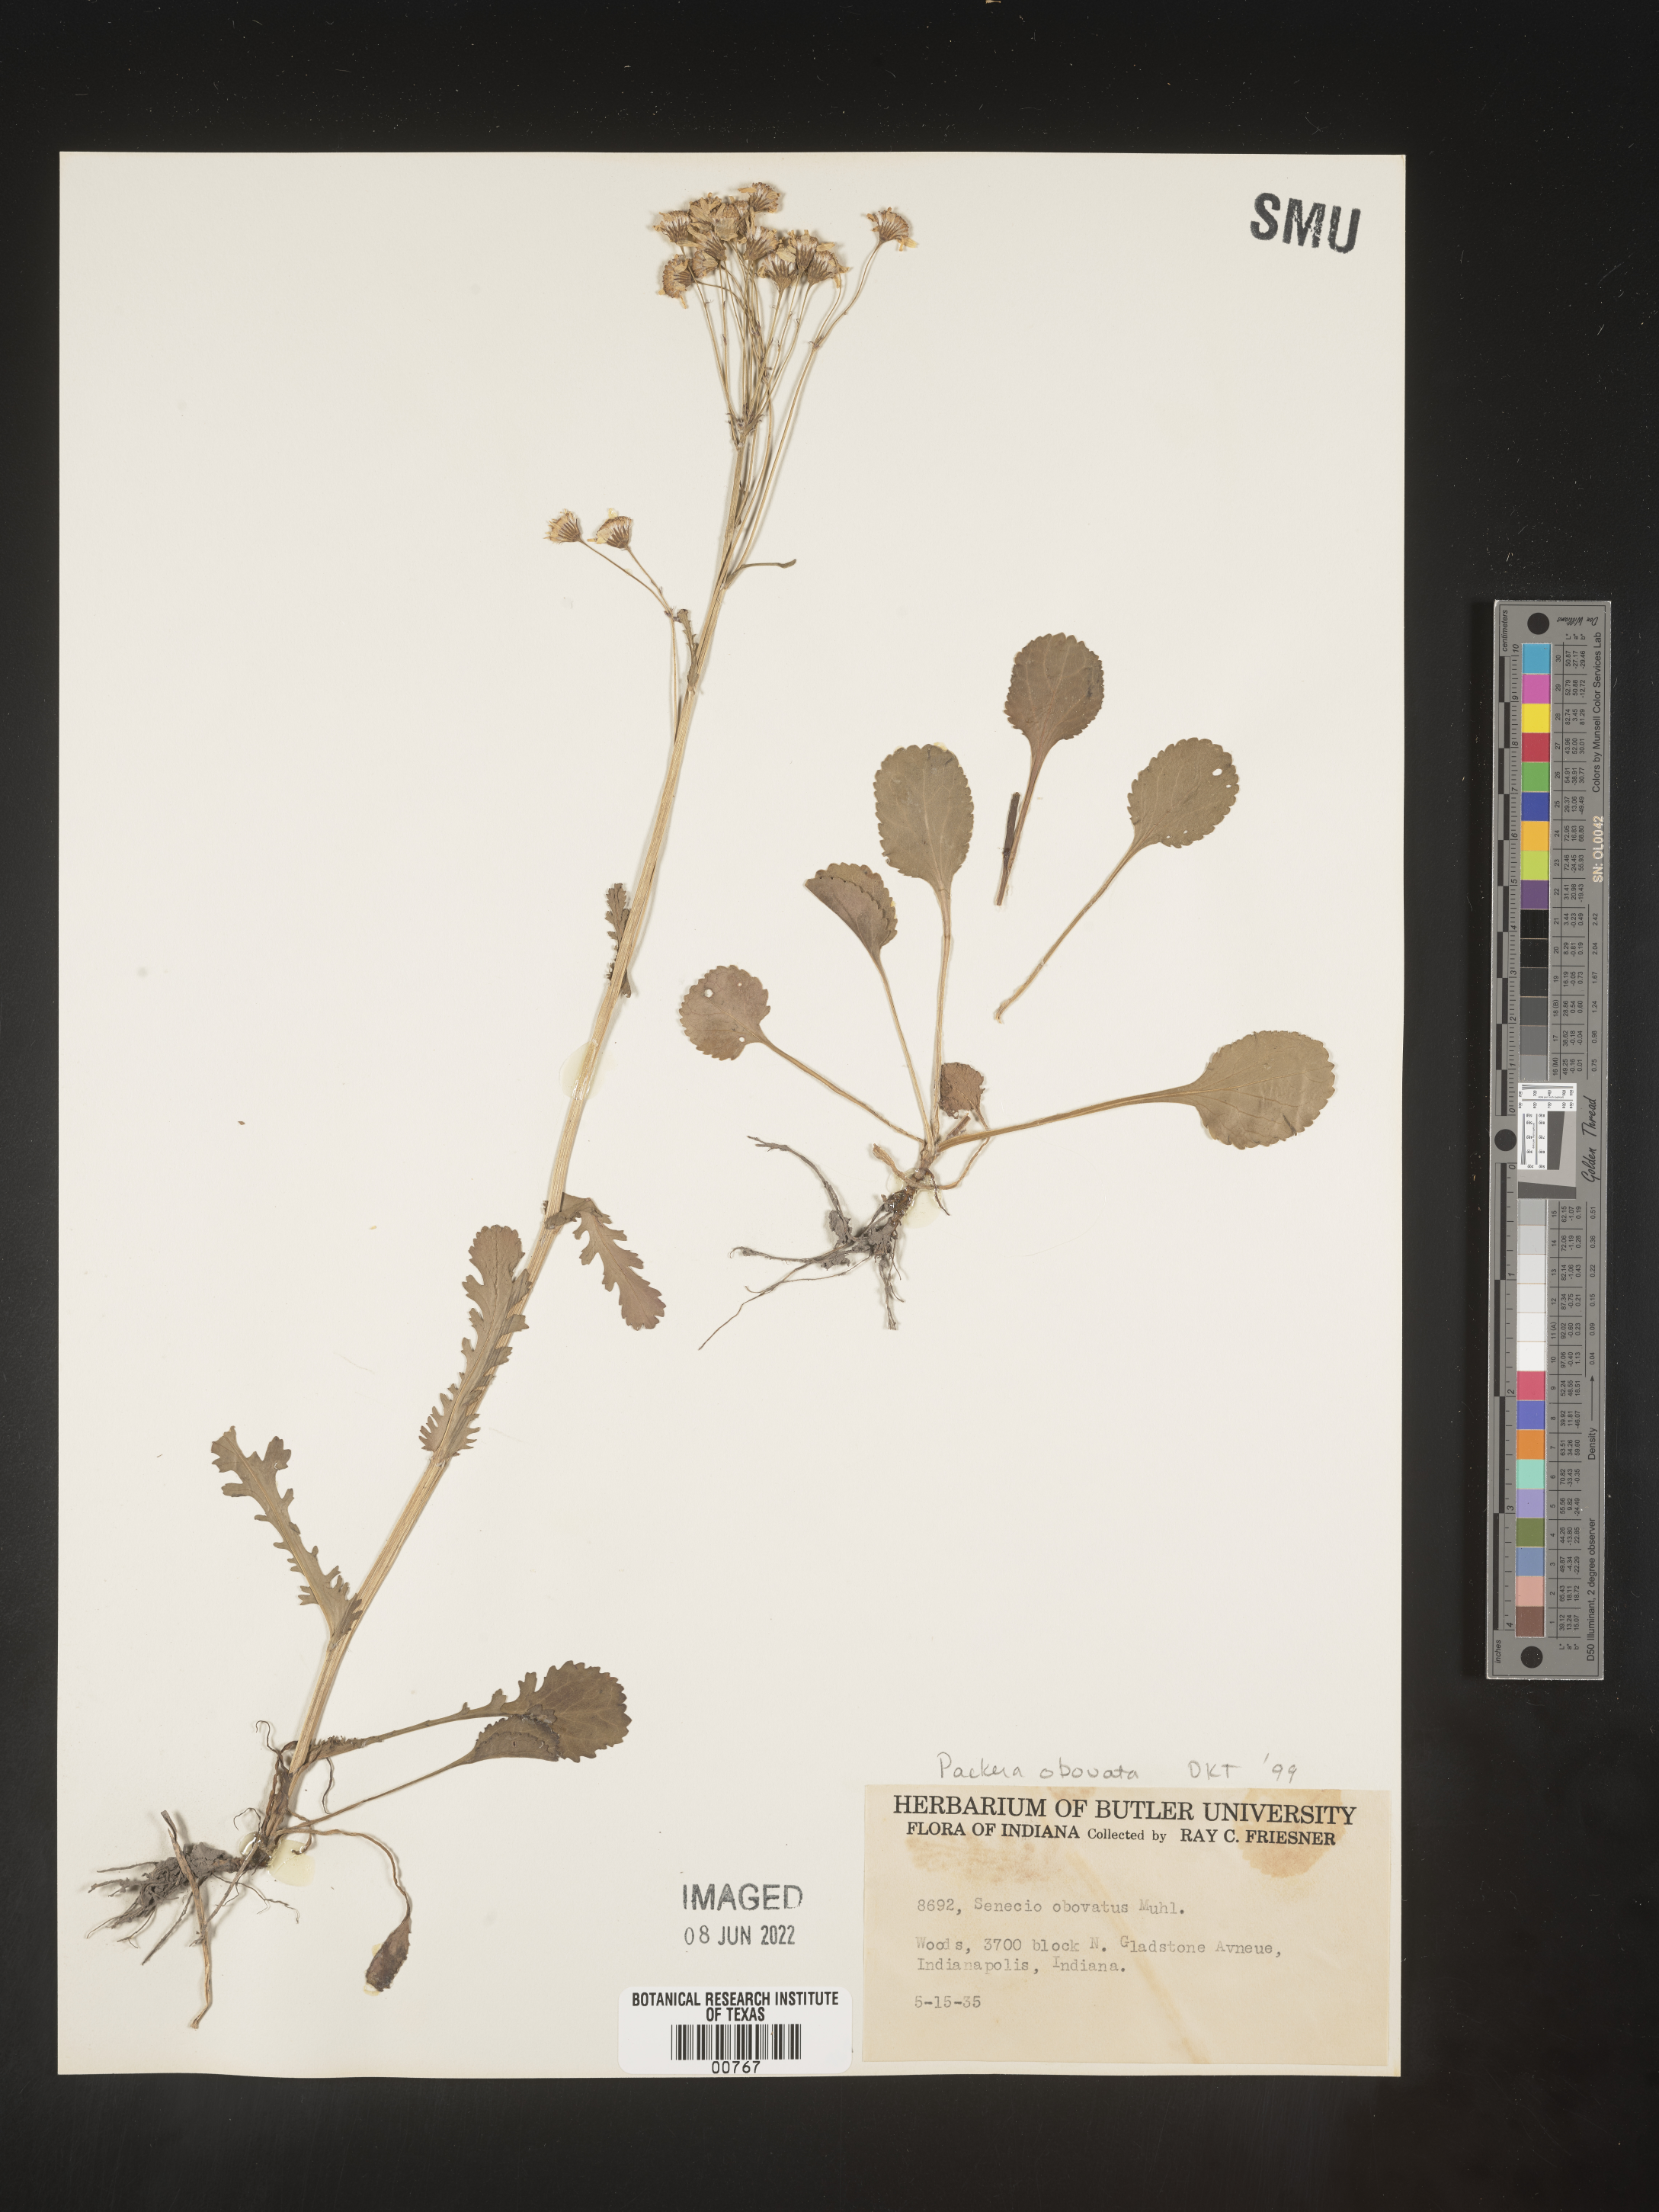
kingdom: Plantae
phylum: Tracheophyta
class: Magnoliopsida
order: Asterales
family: Asteraceae
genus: Packera
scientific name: Packera obovata
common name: Round-leaf ragwort
